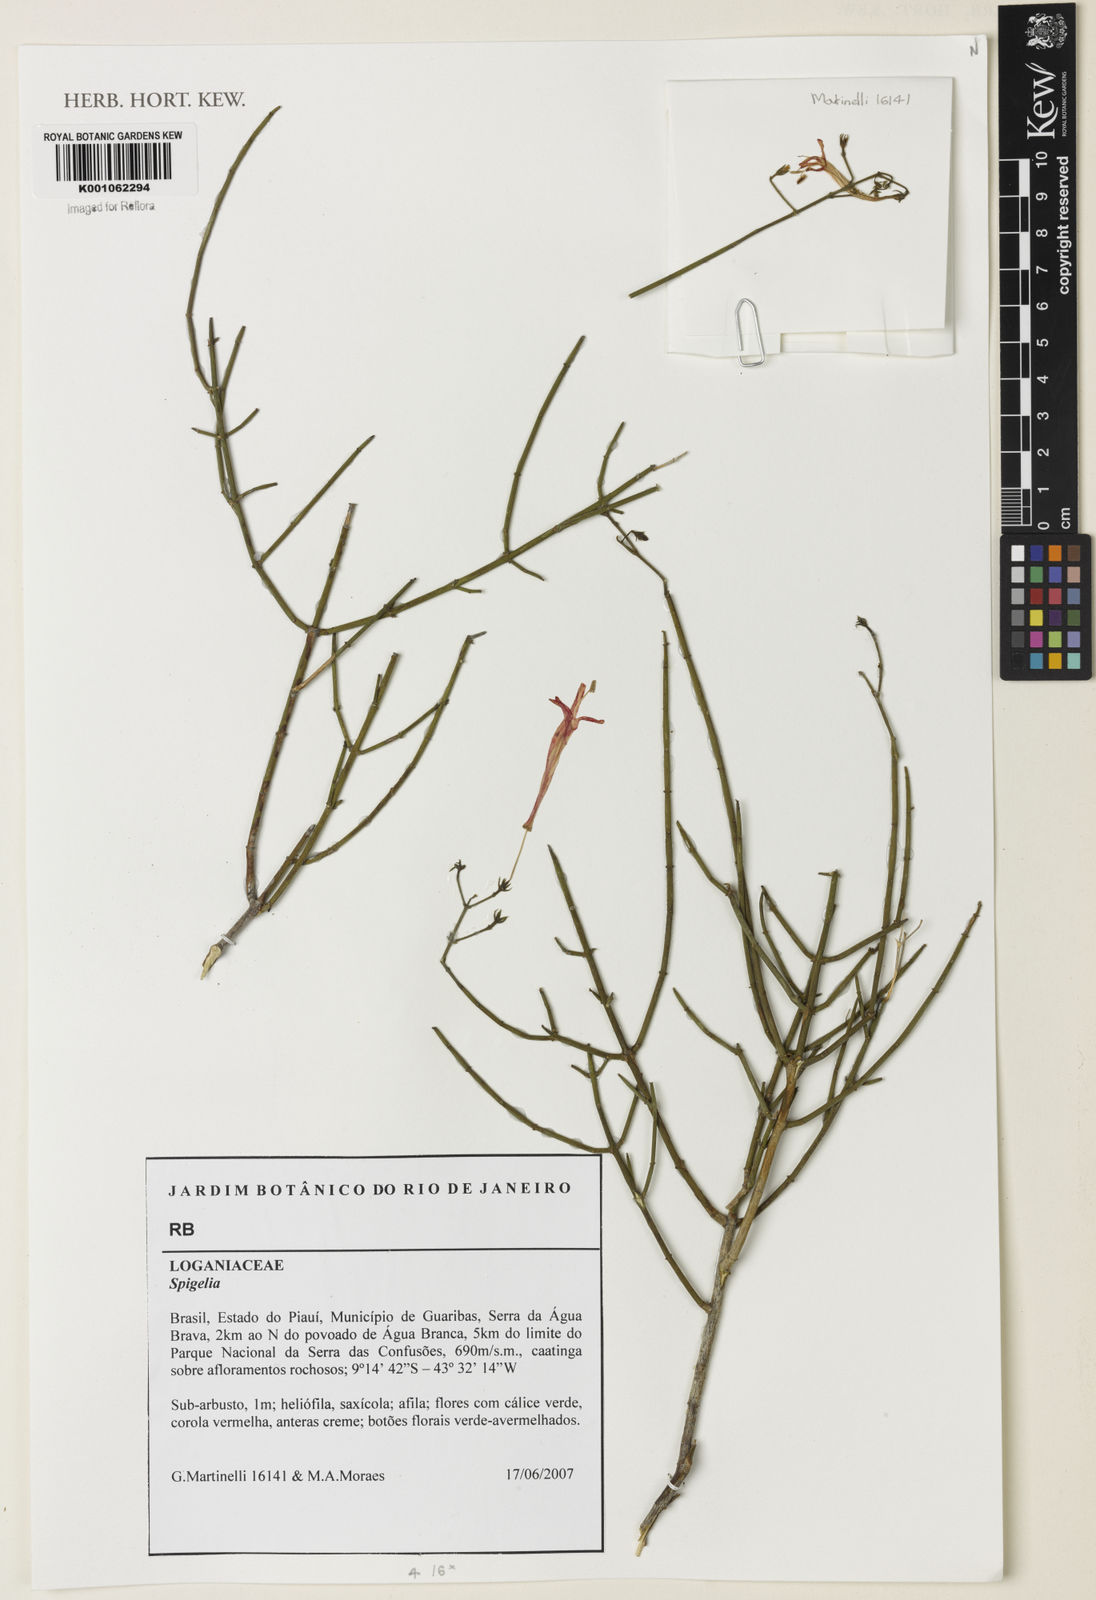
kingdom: Plantae
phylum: Tracheophyta
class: Magnoliopsida
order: Lamiales
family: Acanthaceae
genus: Odontonema
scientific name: Odontonema
